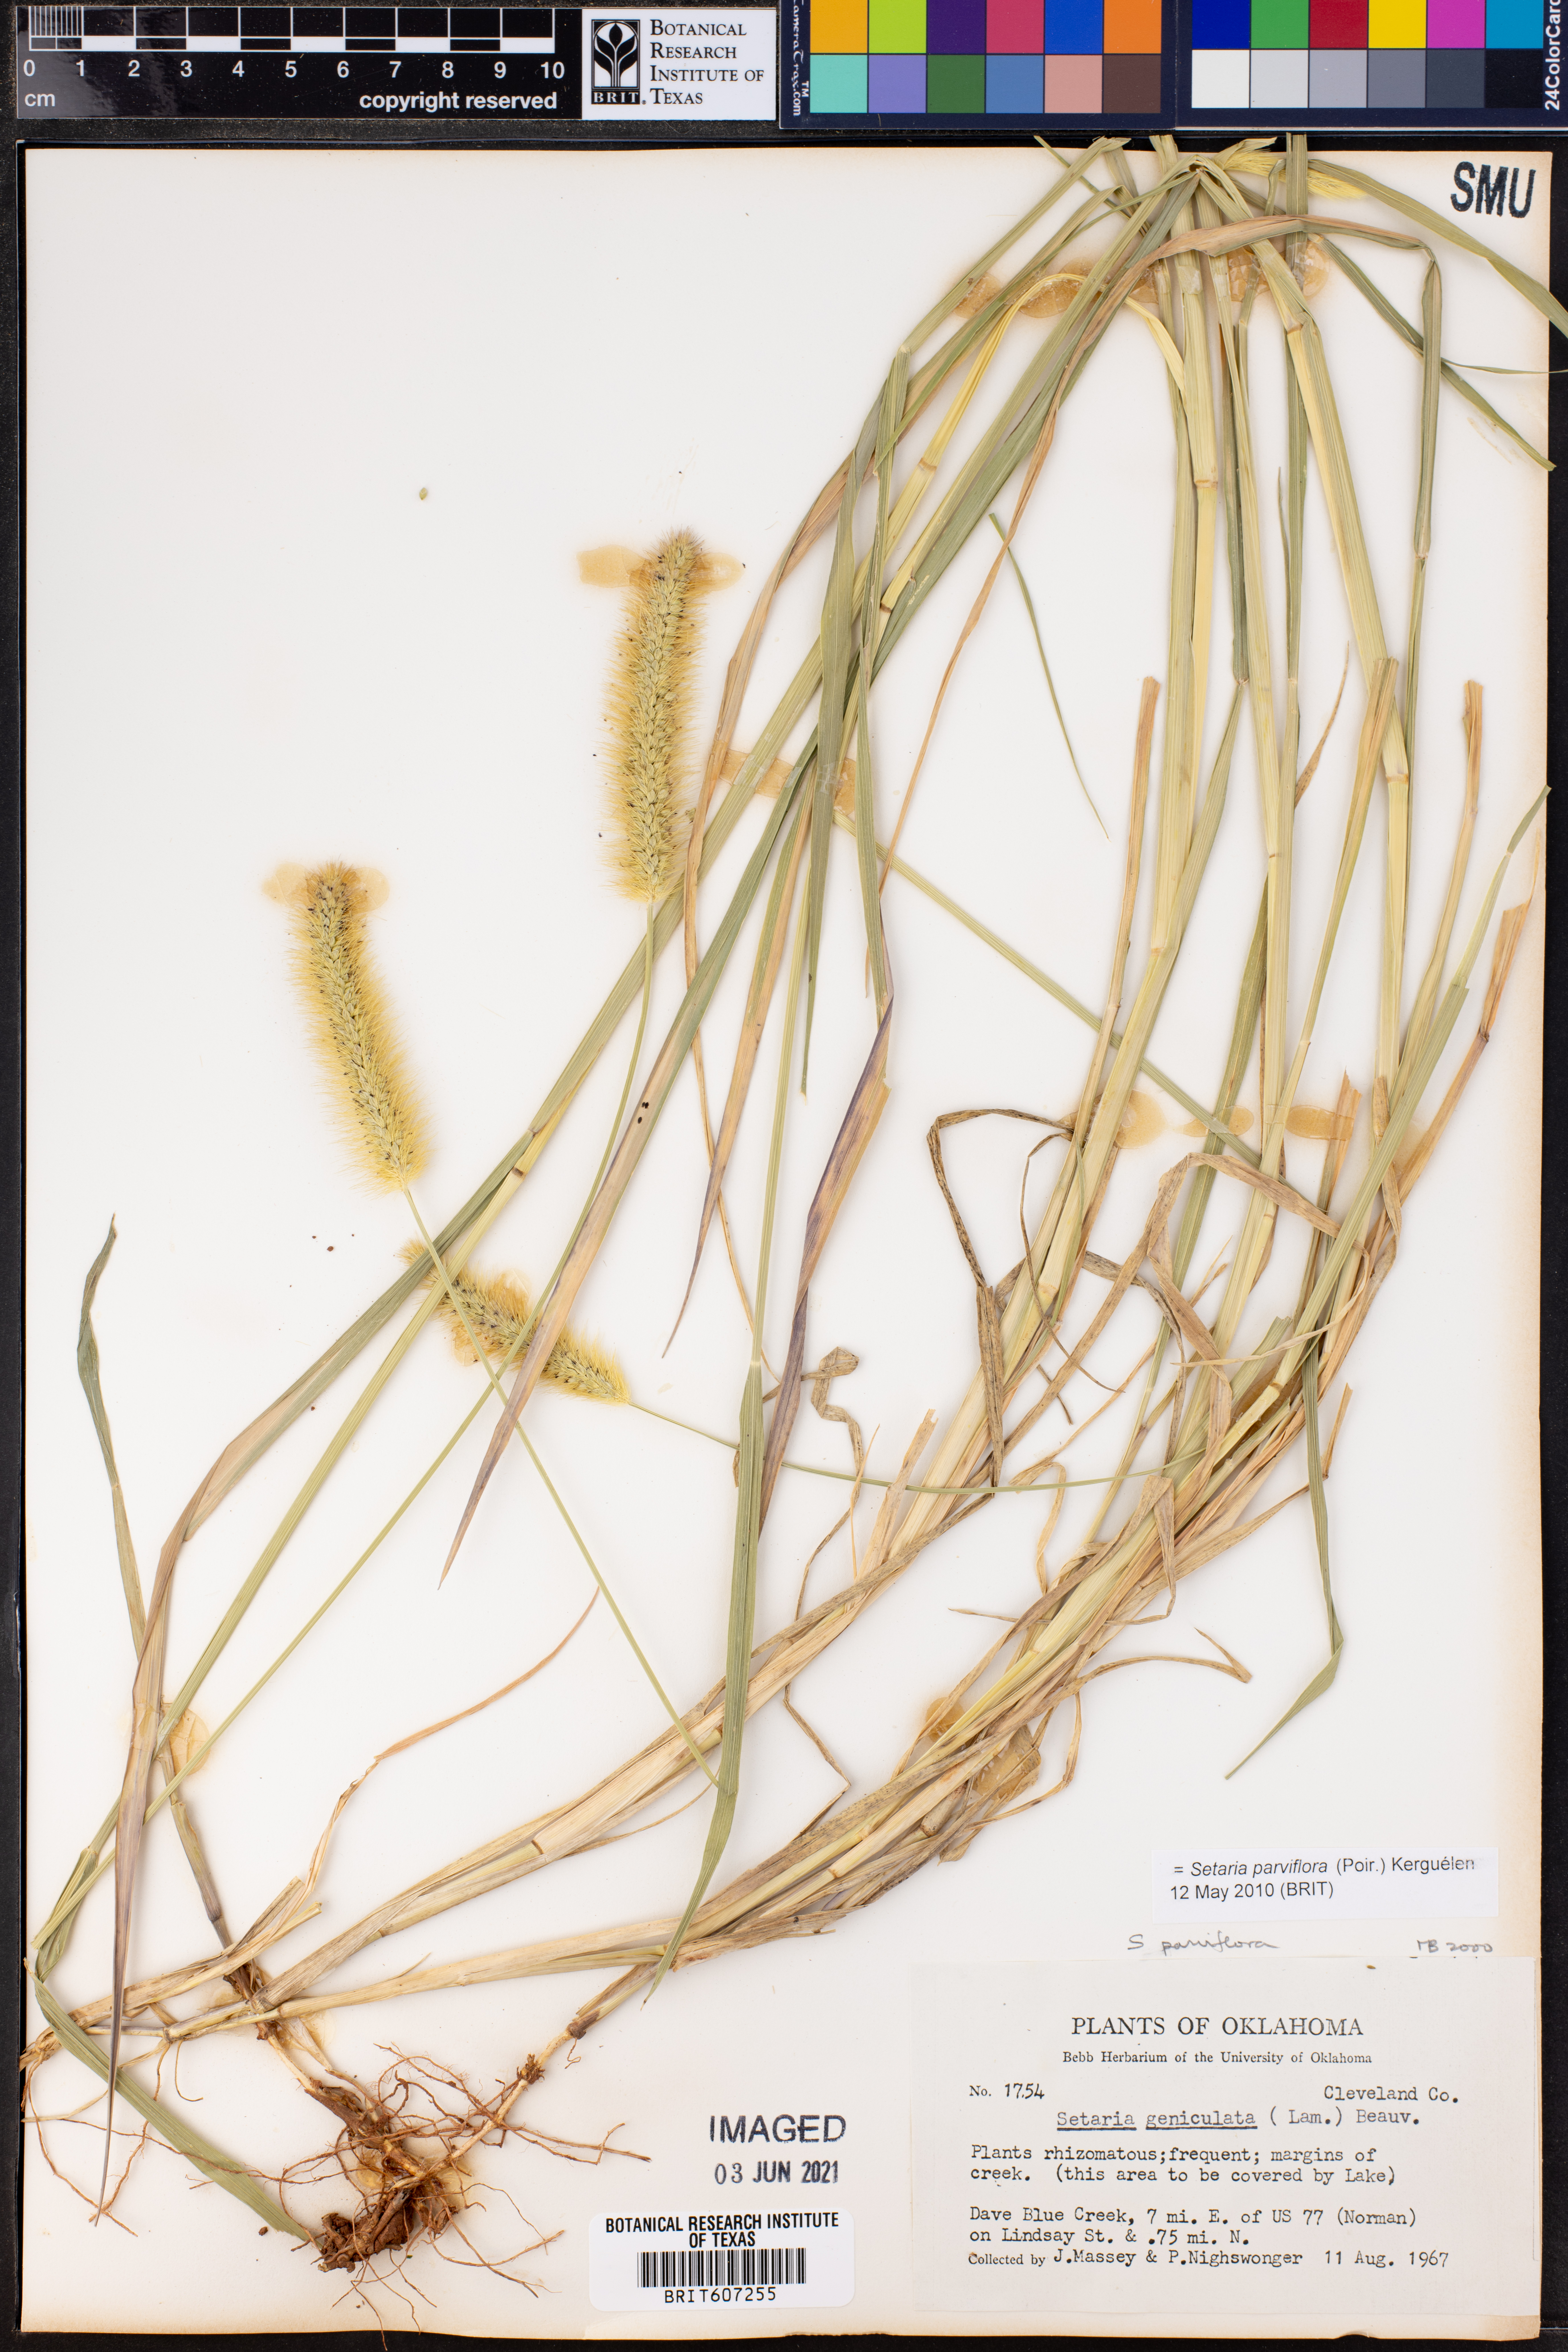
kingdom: Plantae
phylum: Tracheophyta
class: Liliopsida
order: Poales
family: Poaceae
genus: Setaria
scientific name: Setaria parviflora
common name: Knotroot bristle-grass
